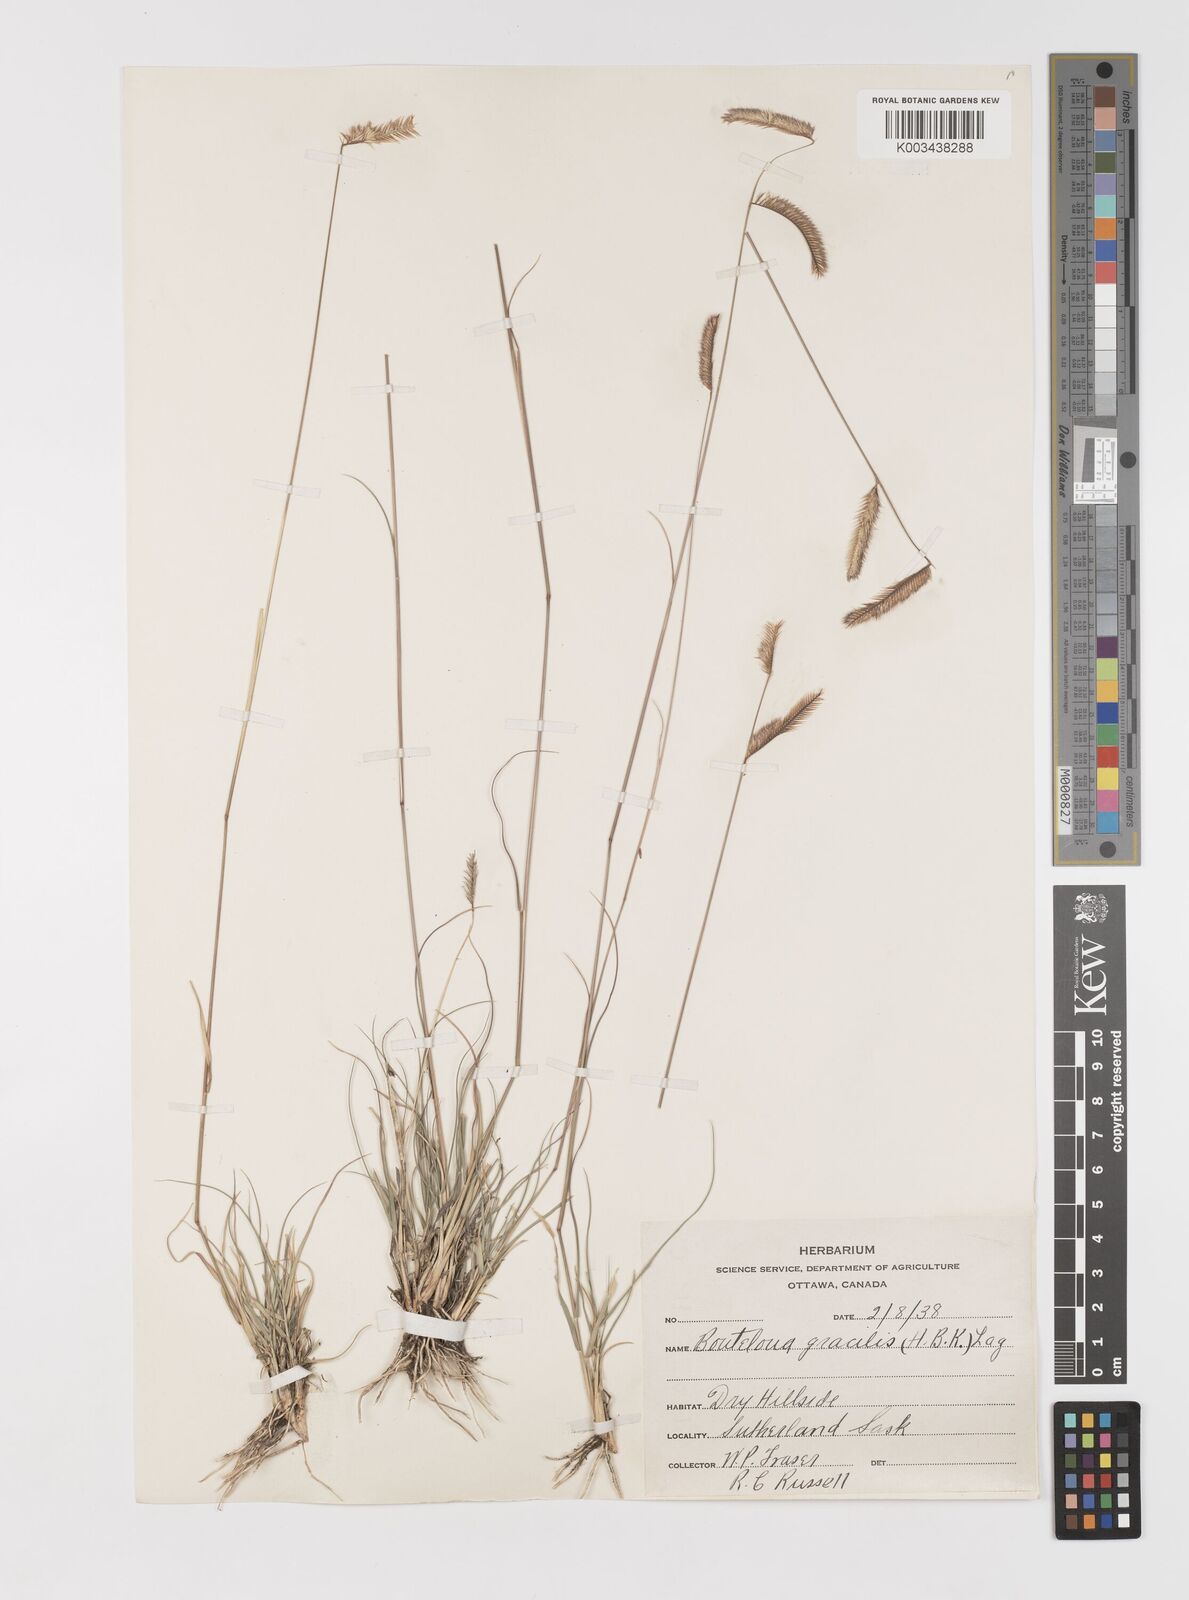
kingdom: Plantae
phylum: Tracheophyta
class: Liliopsida
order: Poales
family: Poaceae
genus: Bouteloua
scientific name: Bouteloua gracilis
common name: Blue grama
